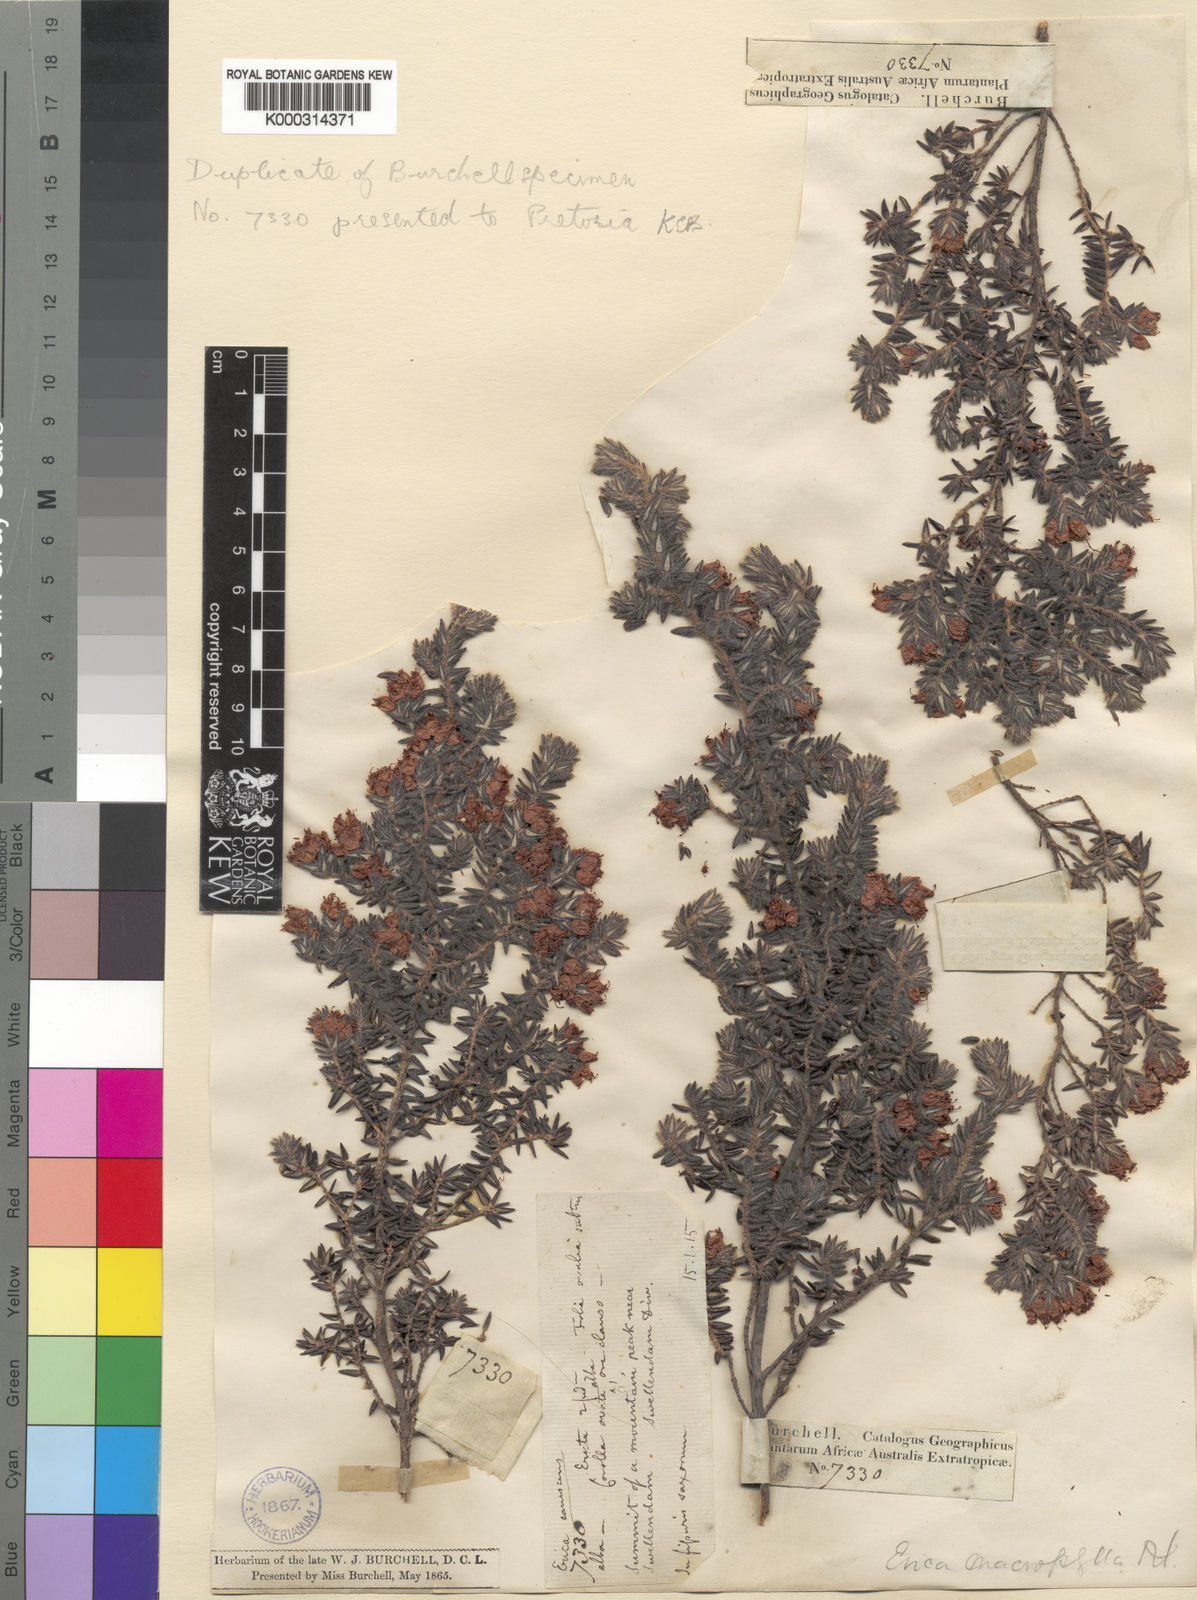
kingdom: Plantae
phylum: Tracheophyta
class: Magnoliopsida
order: Ericales
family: Ericaceae
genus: Erica
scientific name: Erica macrophylla
